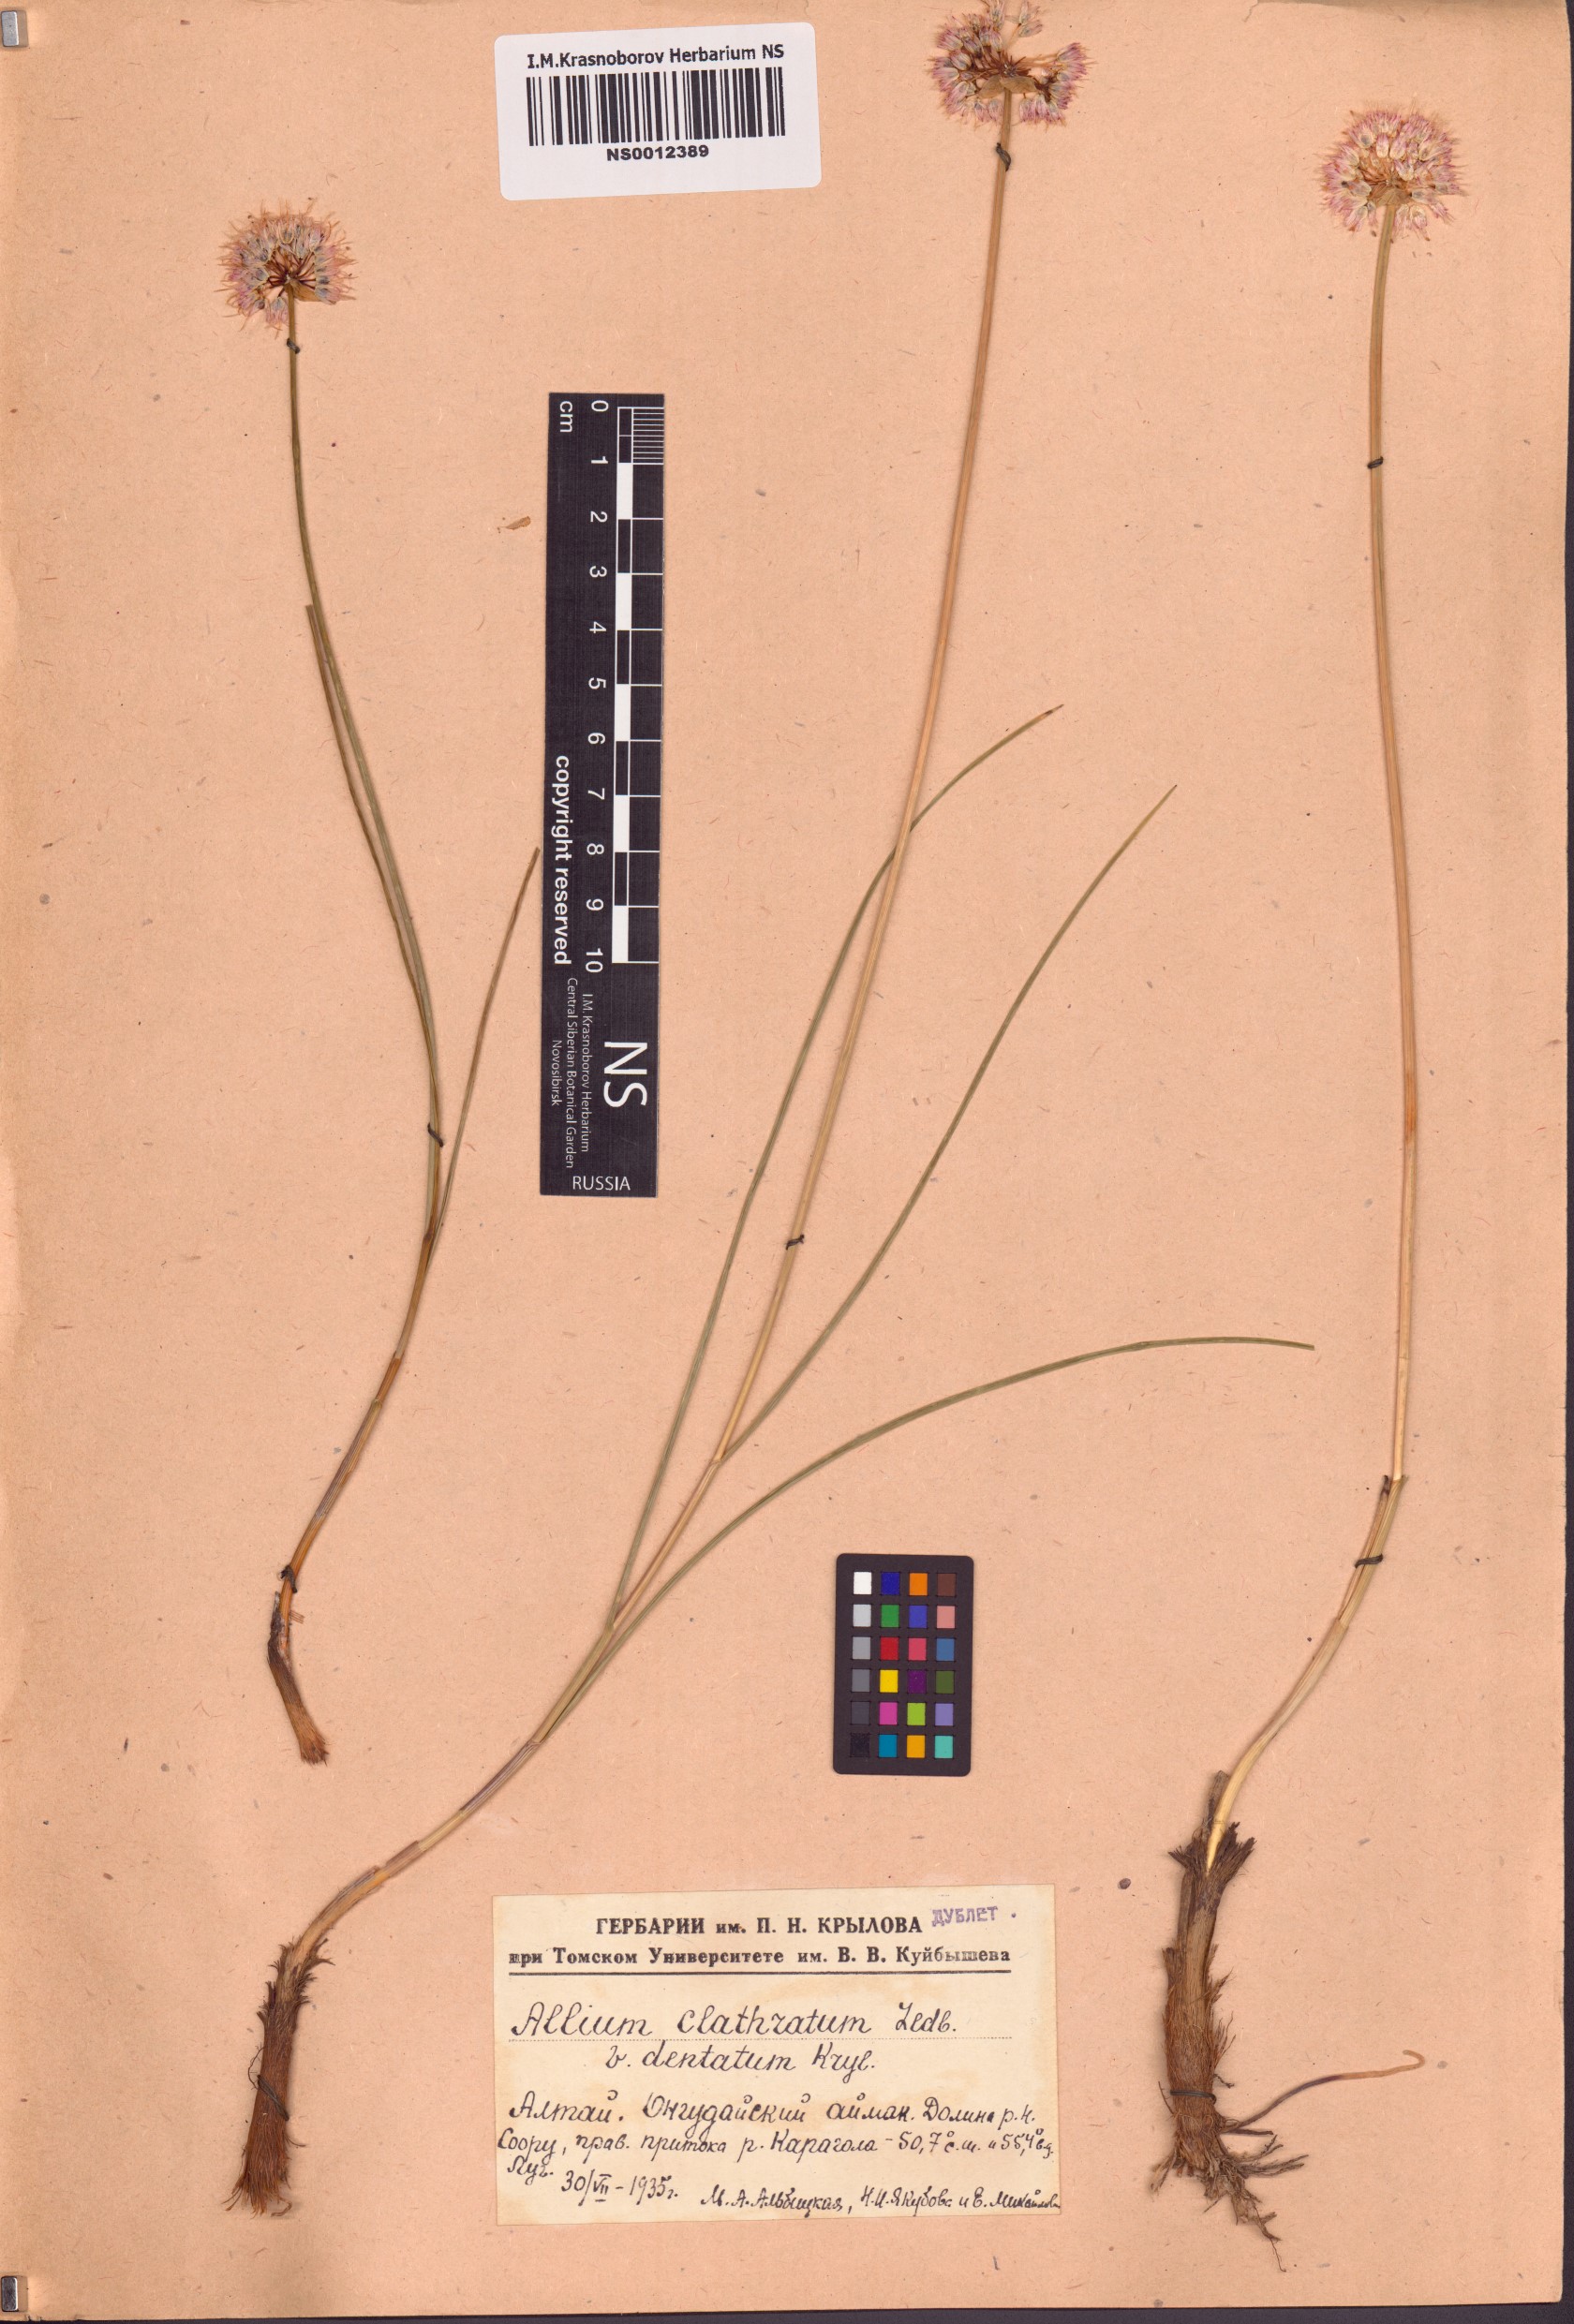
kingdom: Plantae
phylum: Tracheophyta
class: Liliopsida
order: Asparagales
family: Amaryllidaceae
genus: Allium
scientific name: Allium clathratum
